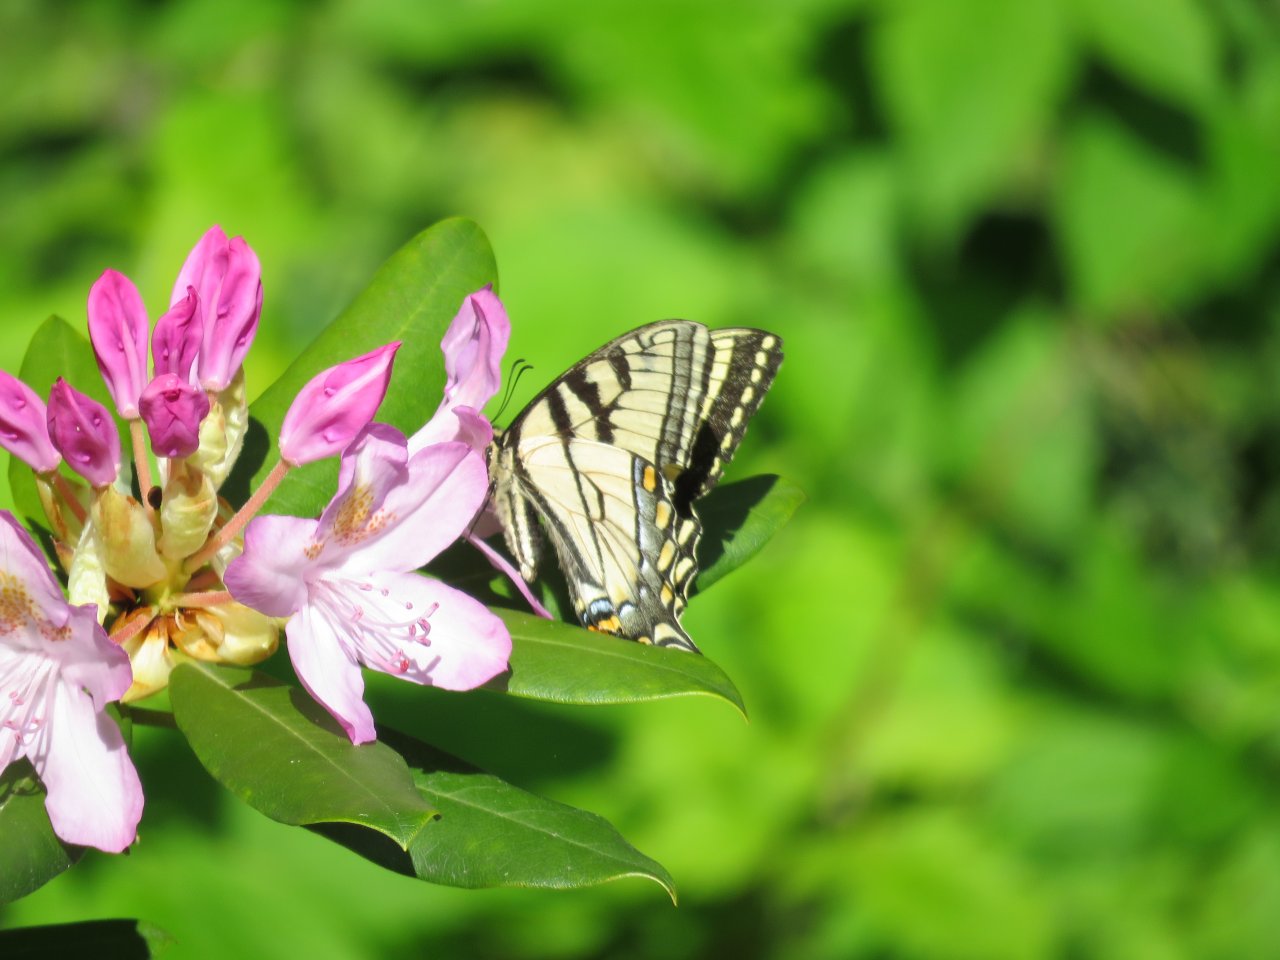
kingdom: Animalia
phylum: Arthropoda
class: Insecta
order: Lepidoptera
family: Papilionidae
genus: Pterourus
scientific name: Pterourus canadensis
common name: Canadian Tiger Swallowtail
